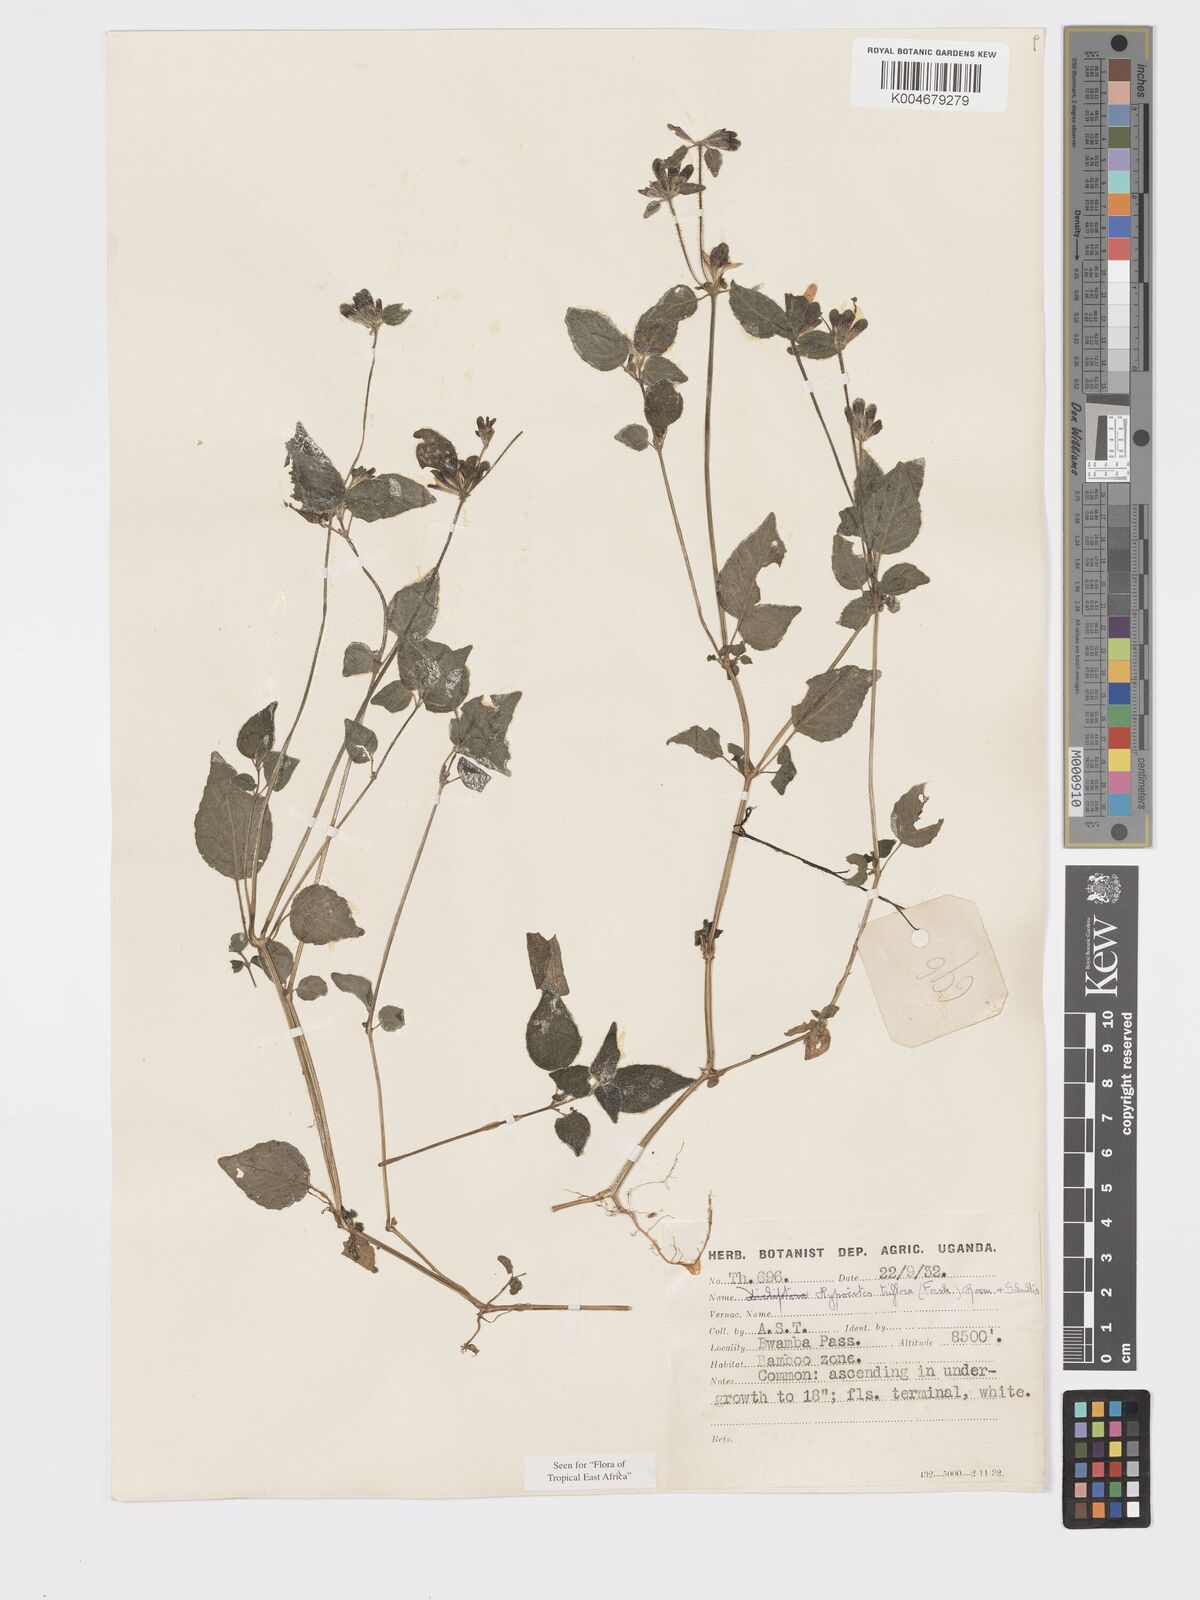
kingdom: Plantae
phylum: Tracheophyta
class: Magnoliopsida
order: Lamiales
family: Acanthaceae
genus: Hypoestes
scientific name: Hypoestes triflora
